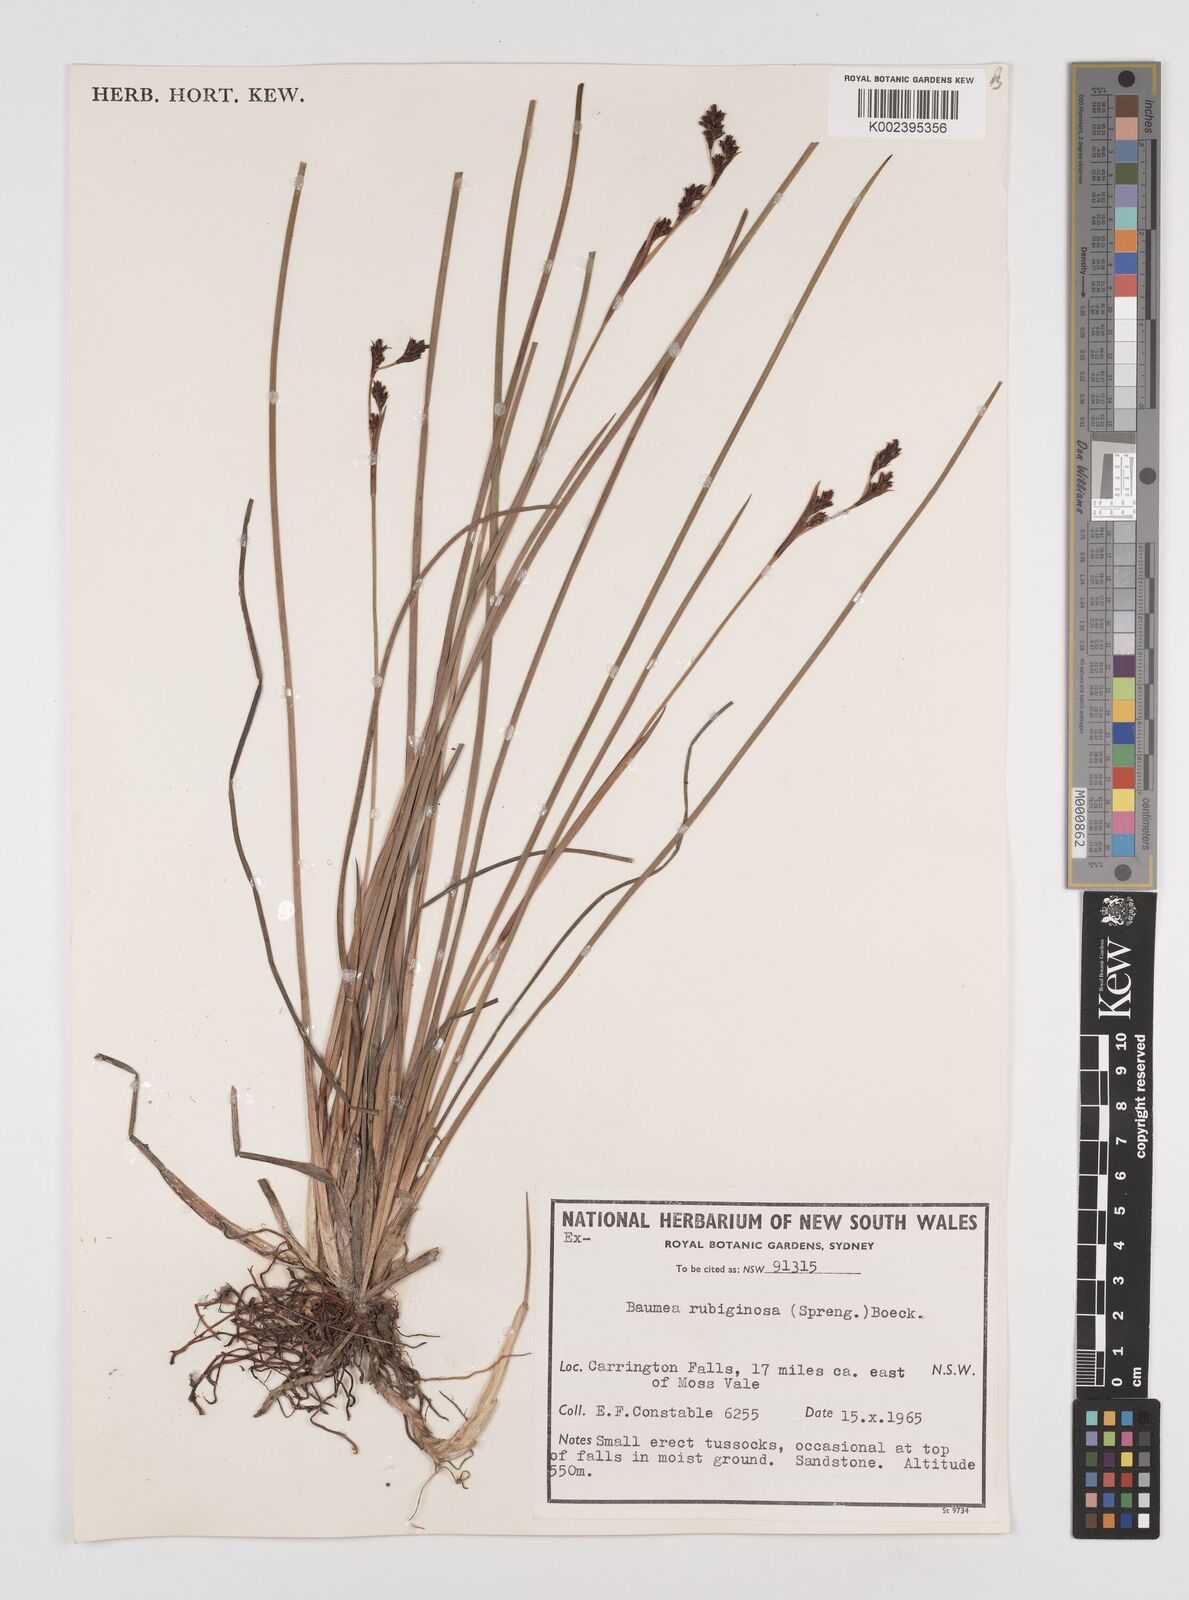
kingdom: Plantae
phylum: Tracheophyta
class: Liliopsida
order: Poales
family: Cyperaceae
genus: Machaerina
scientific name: Machaerina rubiginosa
